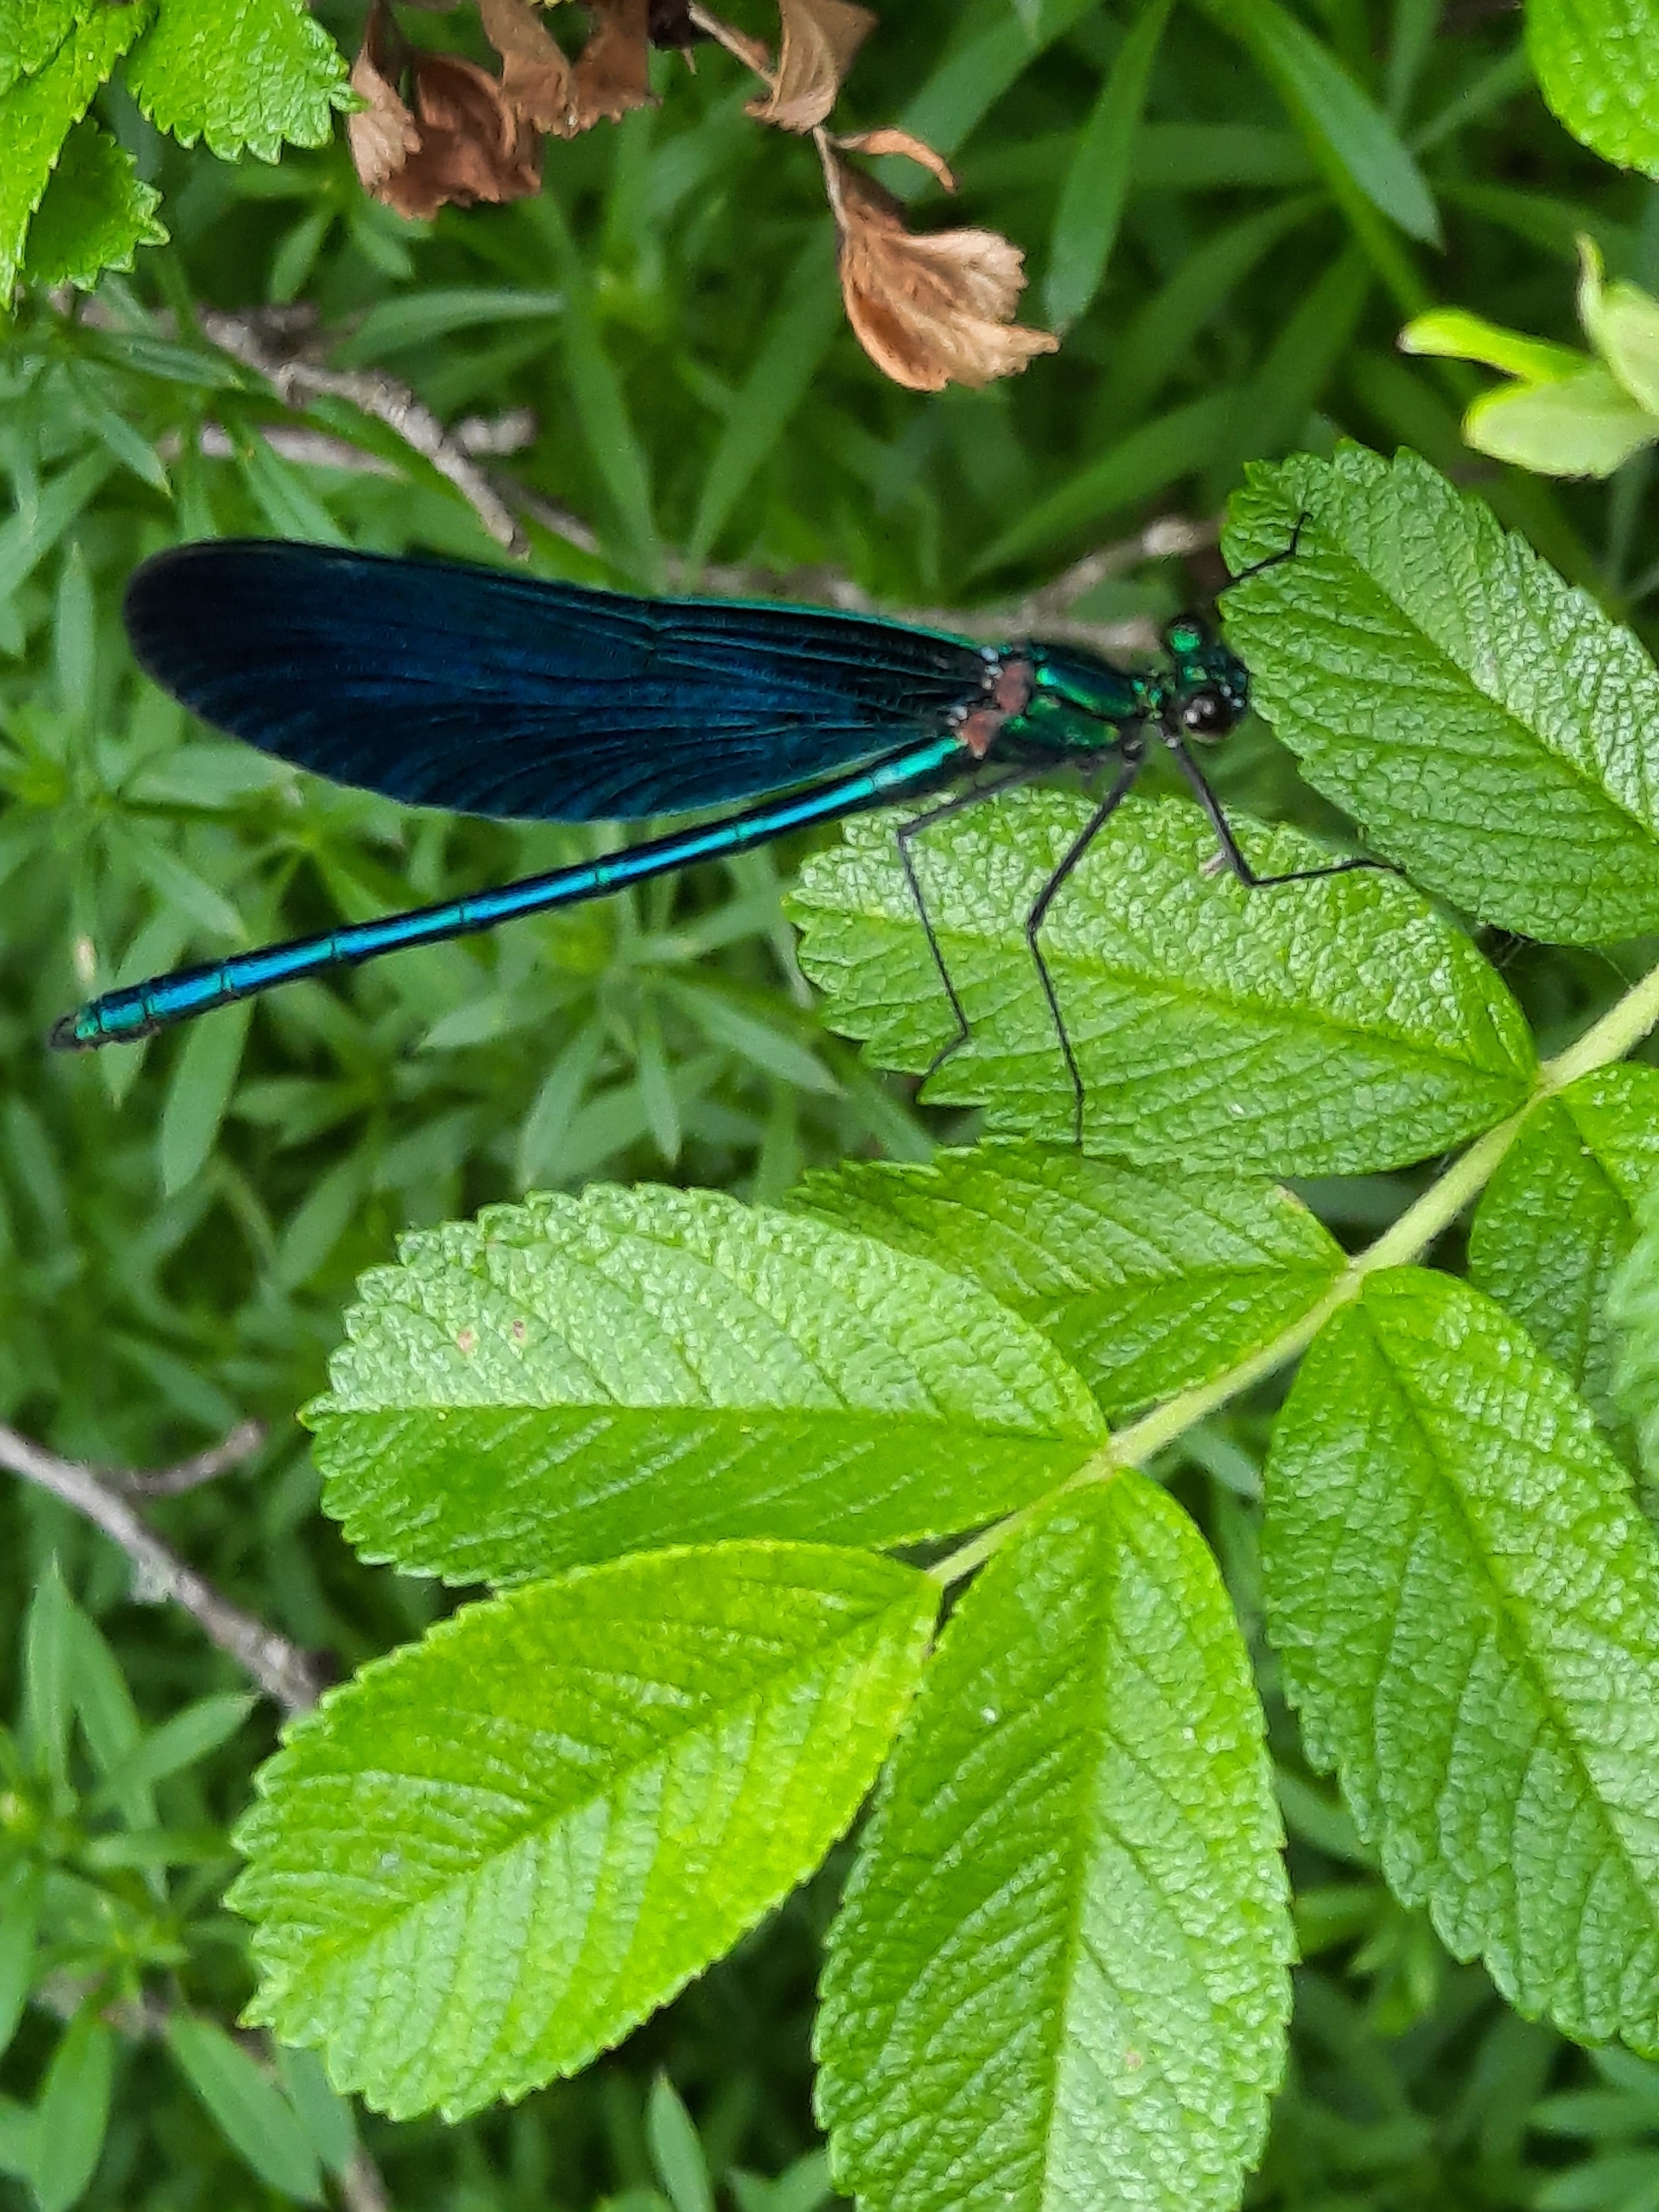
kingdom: Animalia
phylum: Arthropoda
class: Insecta
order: Odonata
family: Calopterygidae
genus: Calopteryx
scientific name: Calopteryx virgo
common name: Blåvinget pragtvandnymfe
